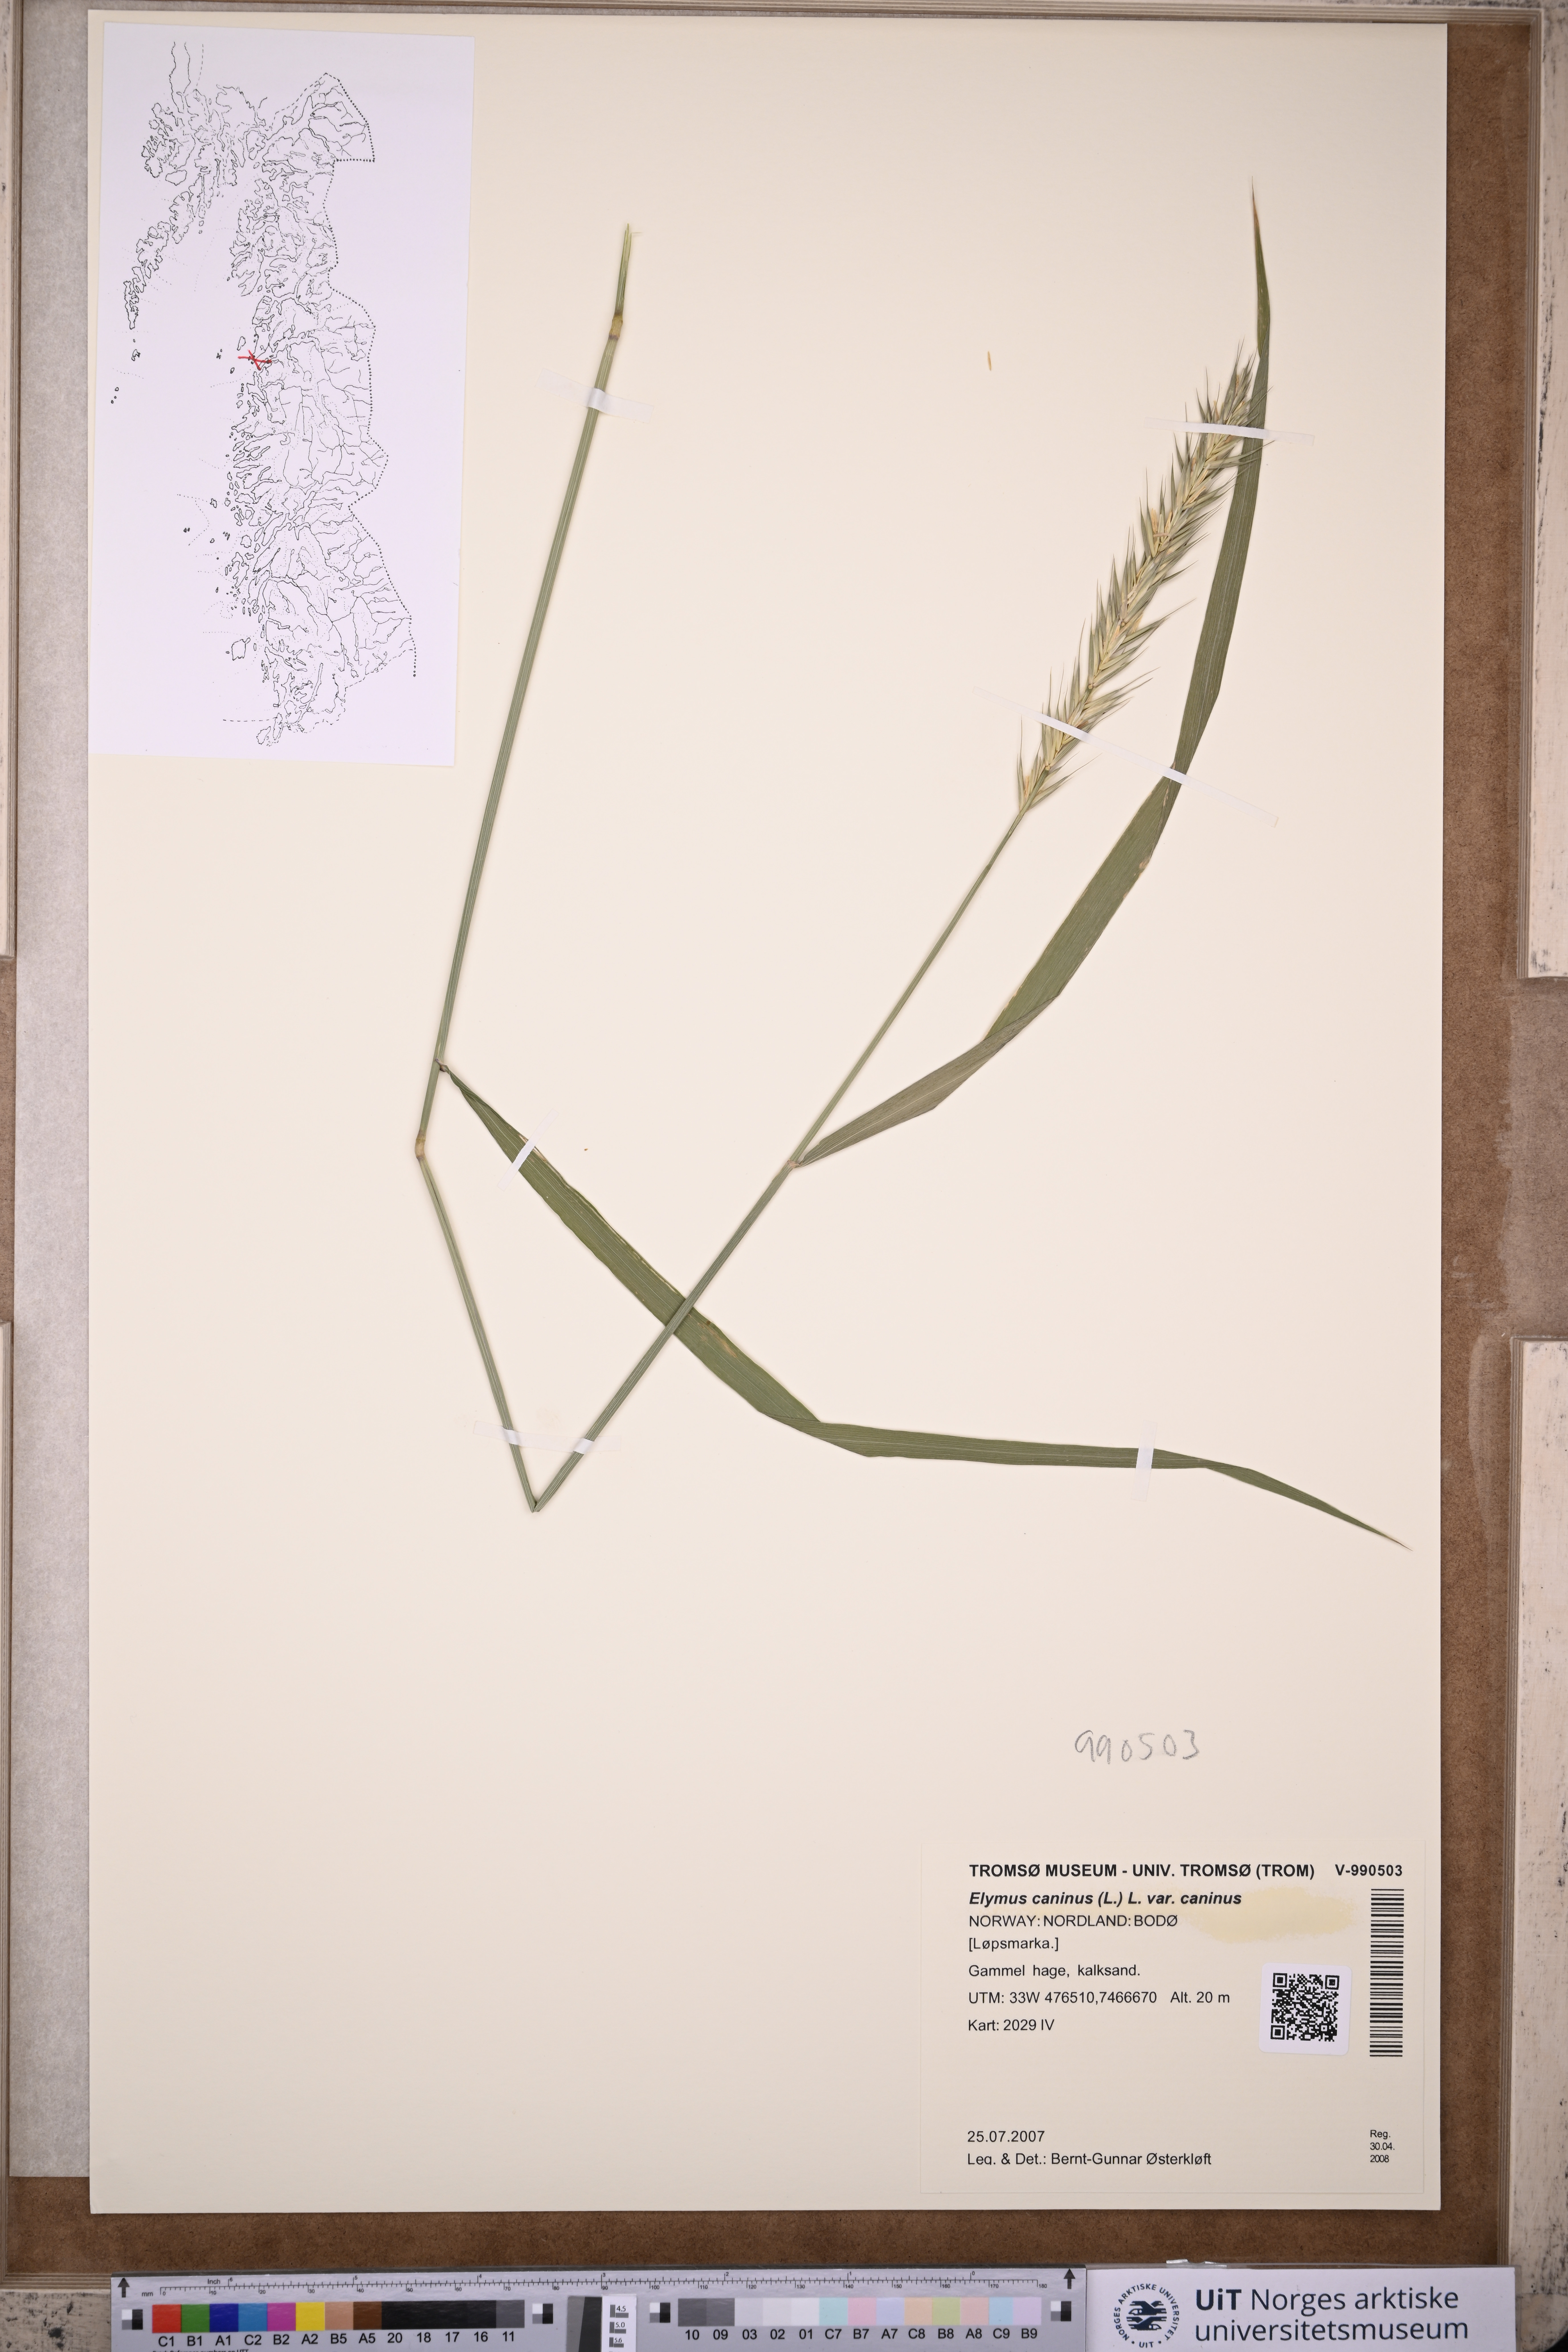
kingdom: Plantae
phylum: Tracheophyta
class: Liliopsida
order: Poales
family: Poaceae
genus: Elymus
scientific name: Elymus caninus
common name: Bearded couch
